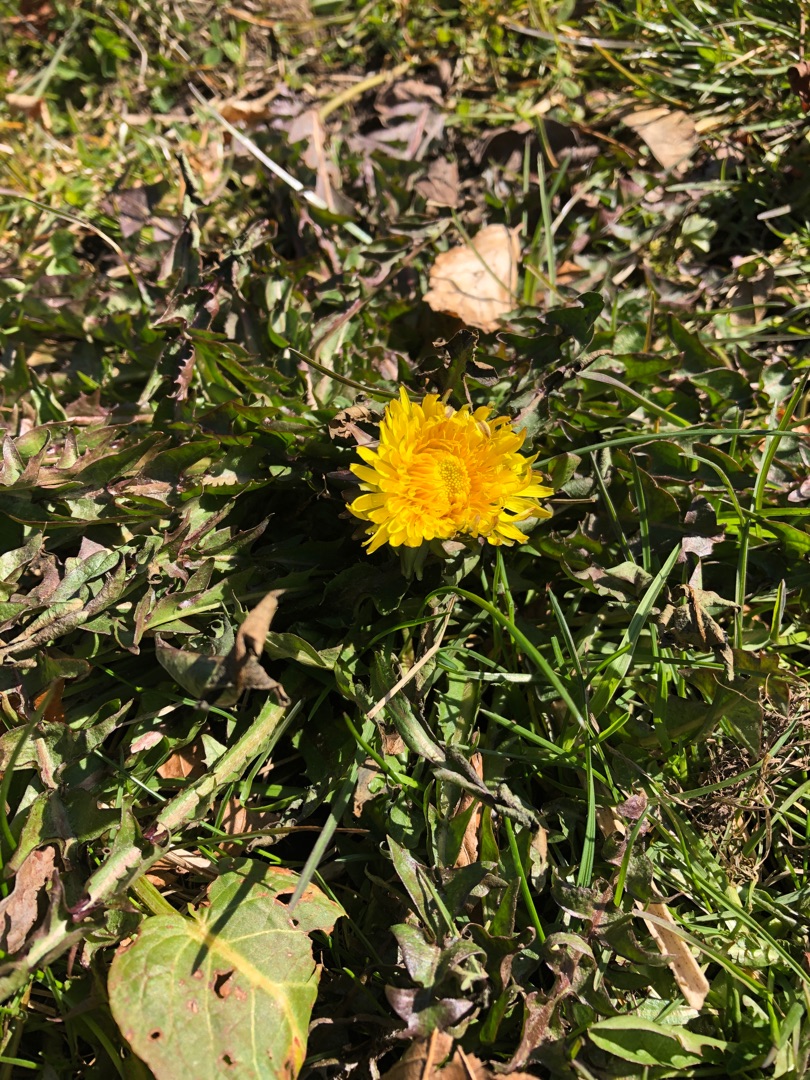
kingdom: Plantae
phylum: Tracheophyta
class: Magnoliopsida
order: Asterales
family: Asteraceae
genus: Taraxacum
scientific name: Taraxacum
